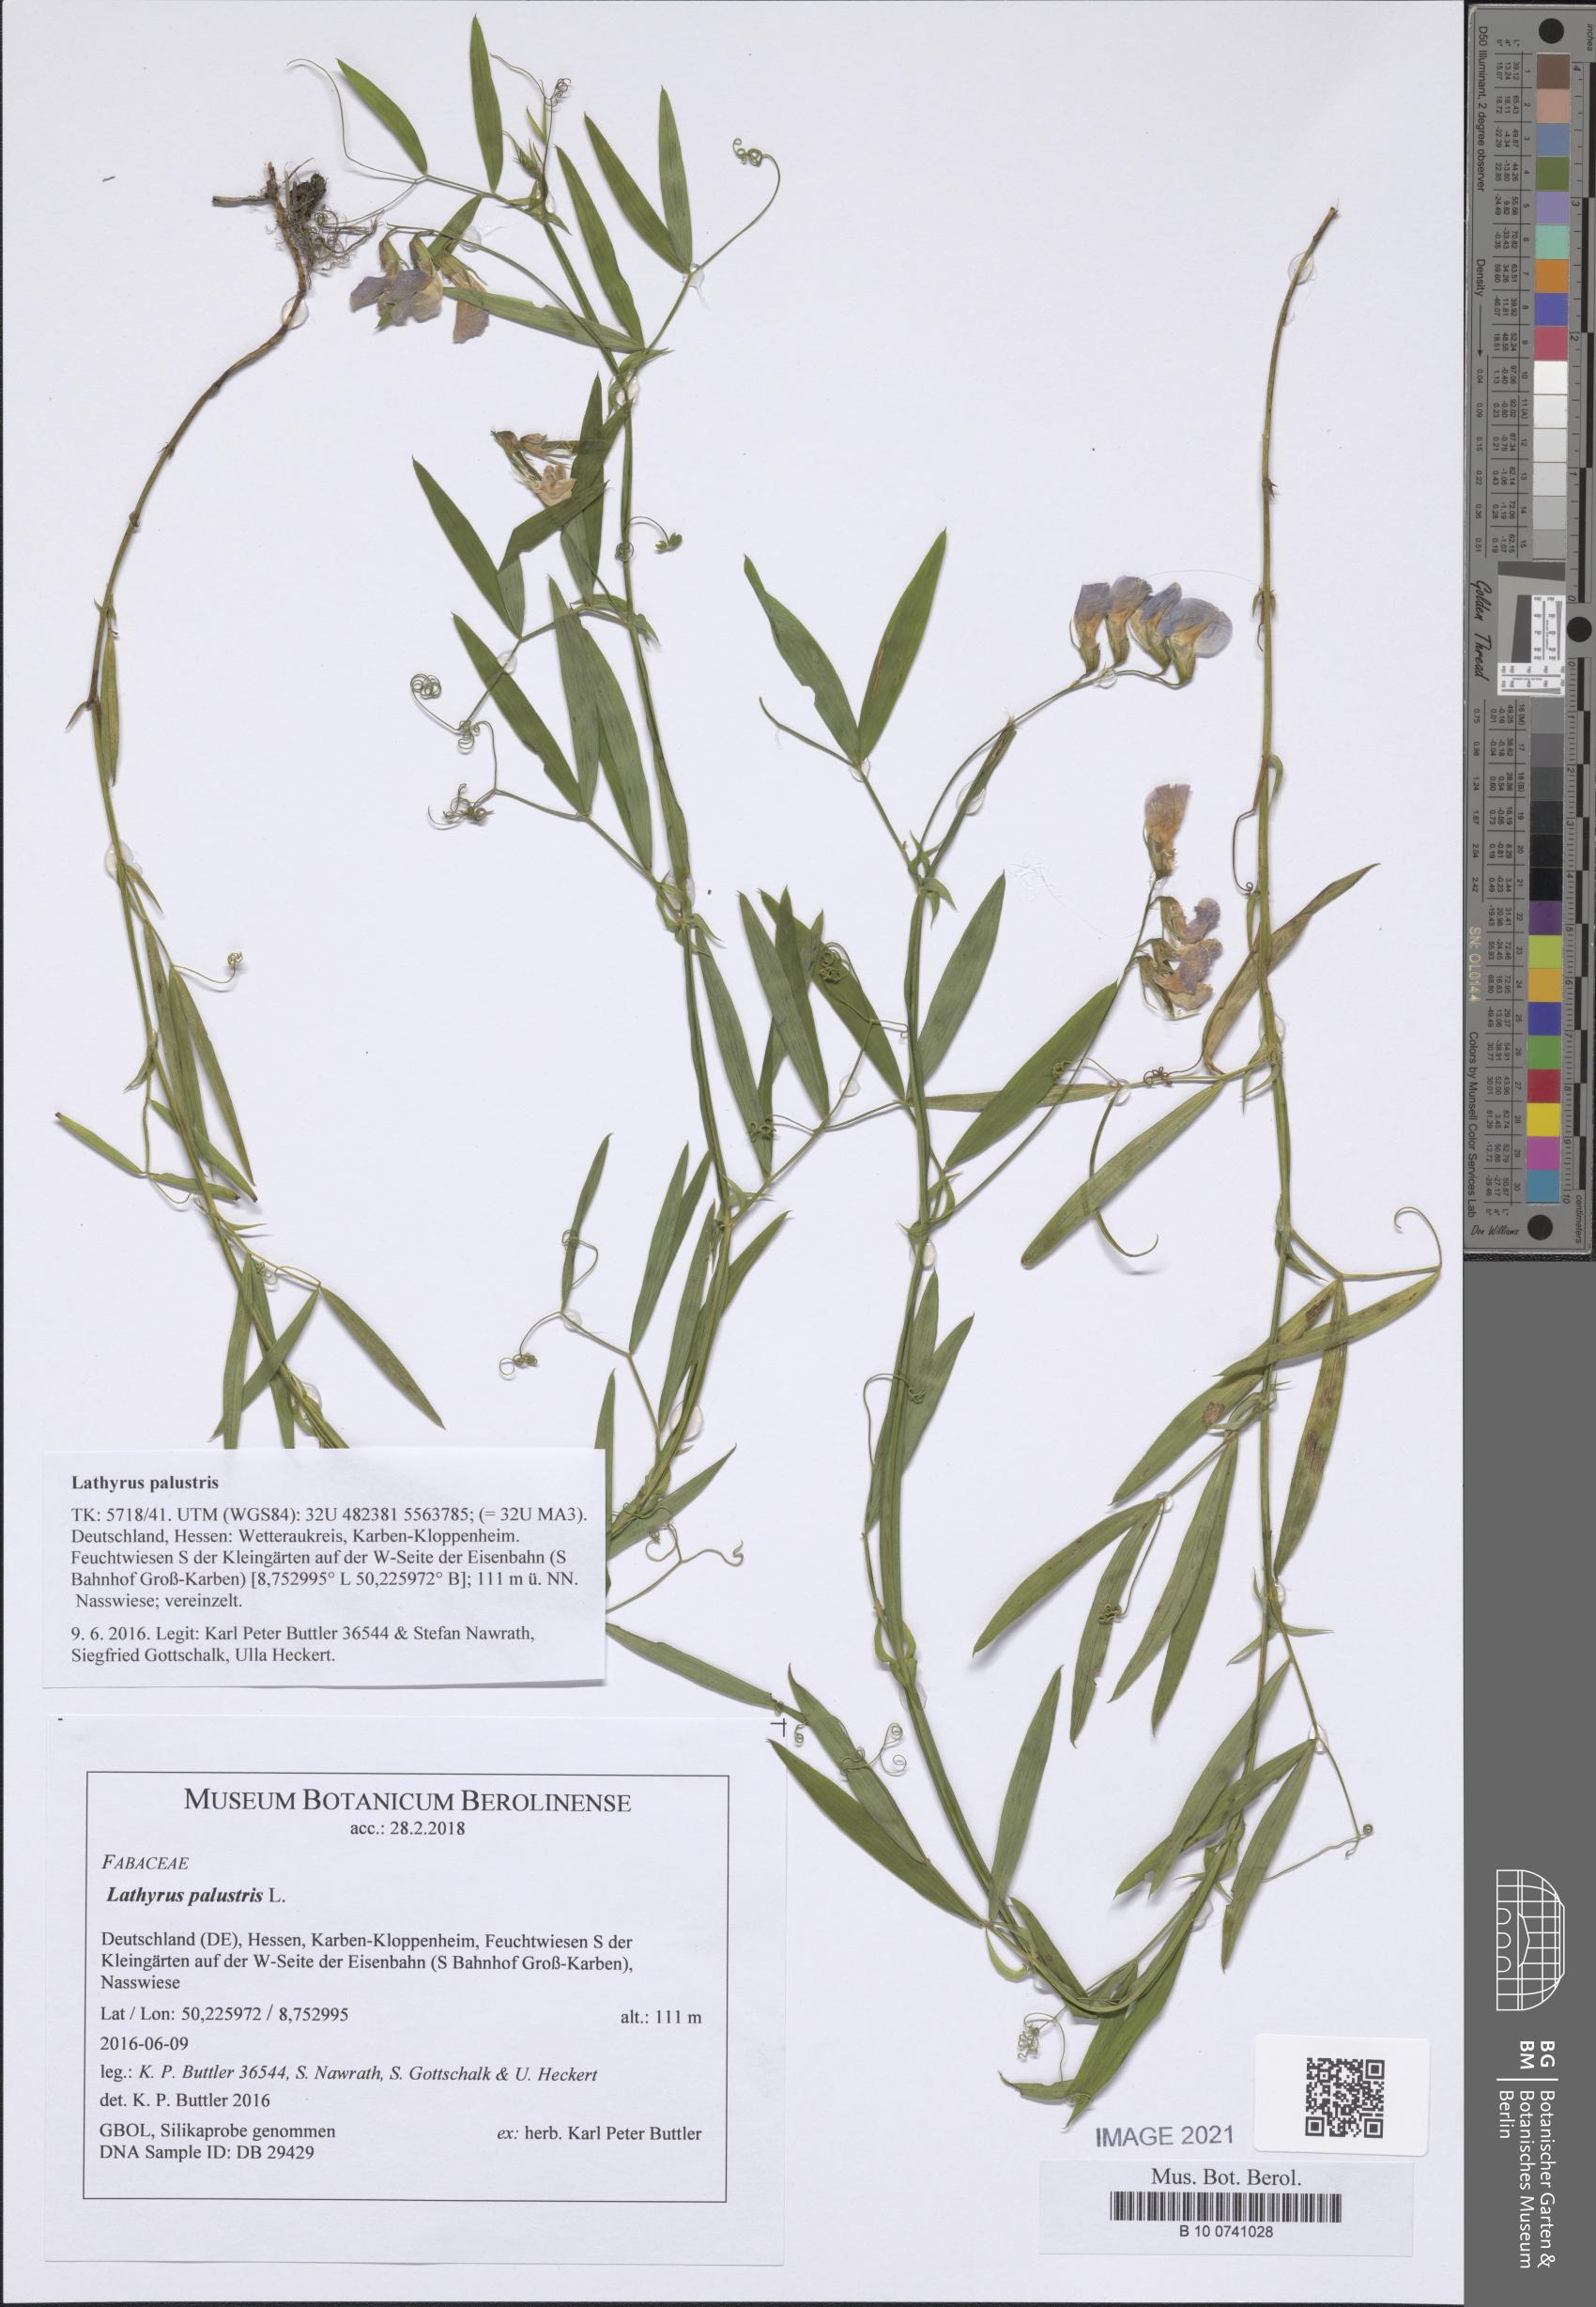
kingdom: Plantae
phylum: Tracheophyta
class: Magnoliopsida
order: Fabales
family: Fabaceae
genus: Lathyrus
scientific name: Lathyrus palustris
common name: Marsh pea
